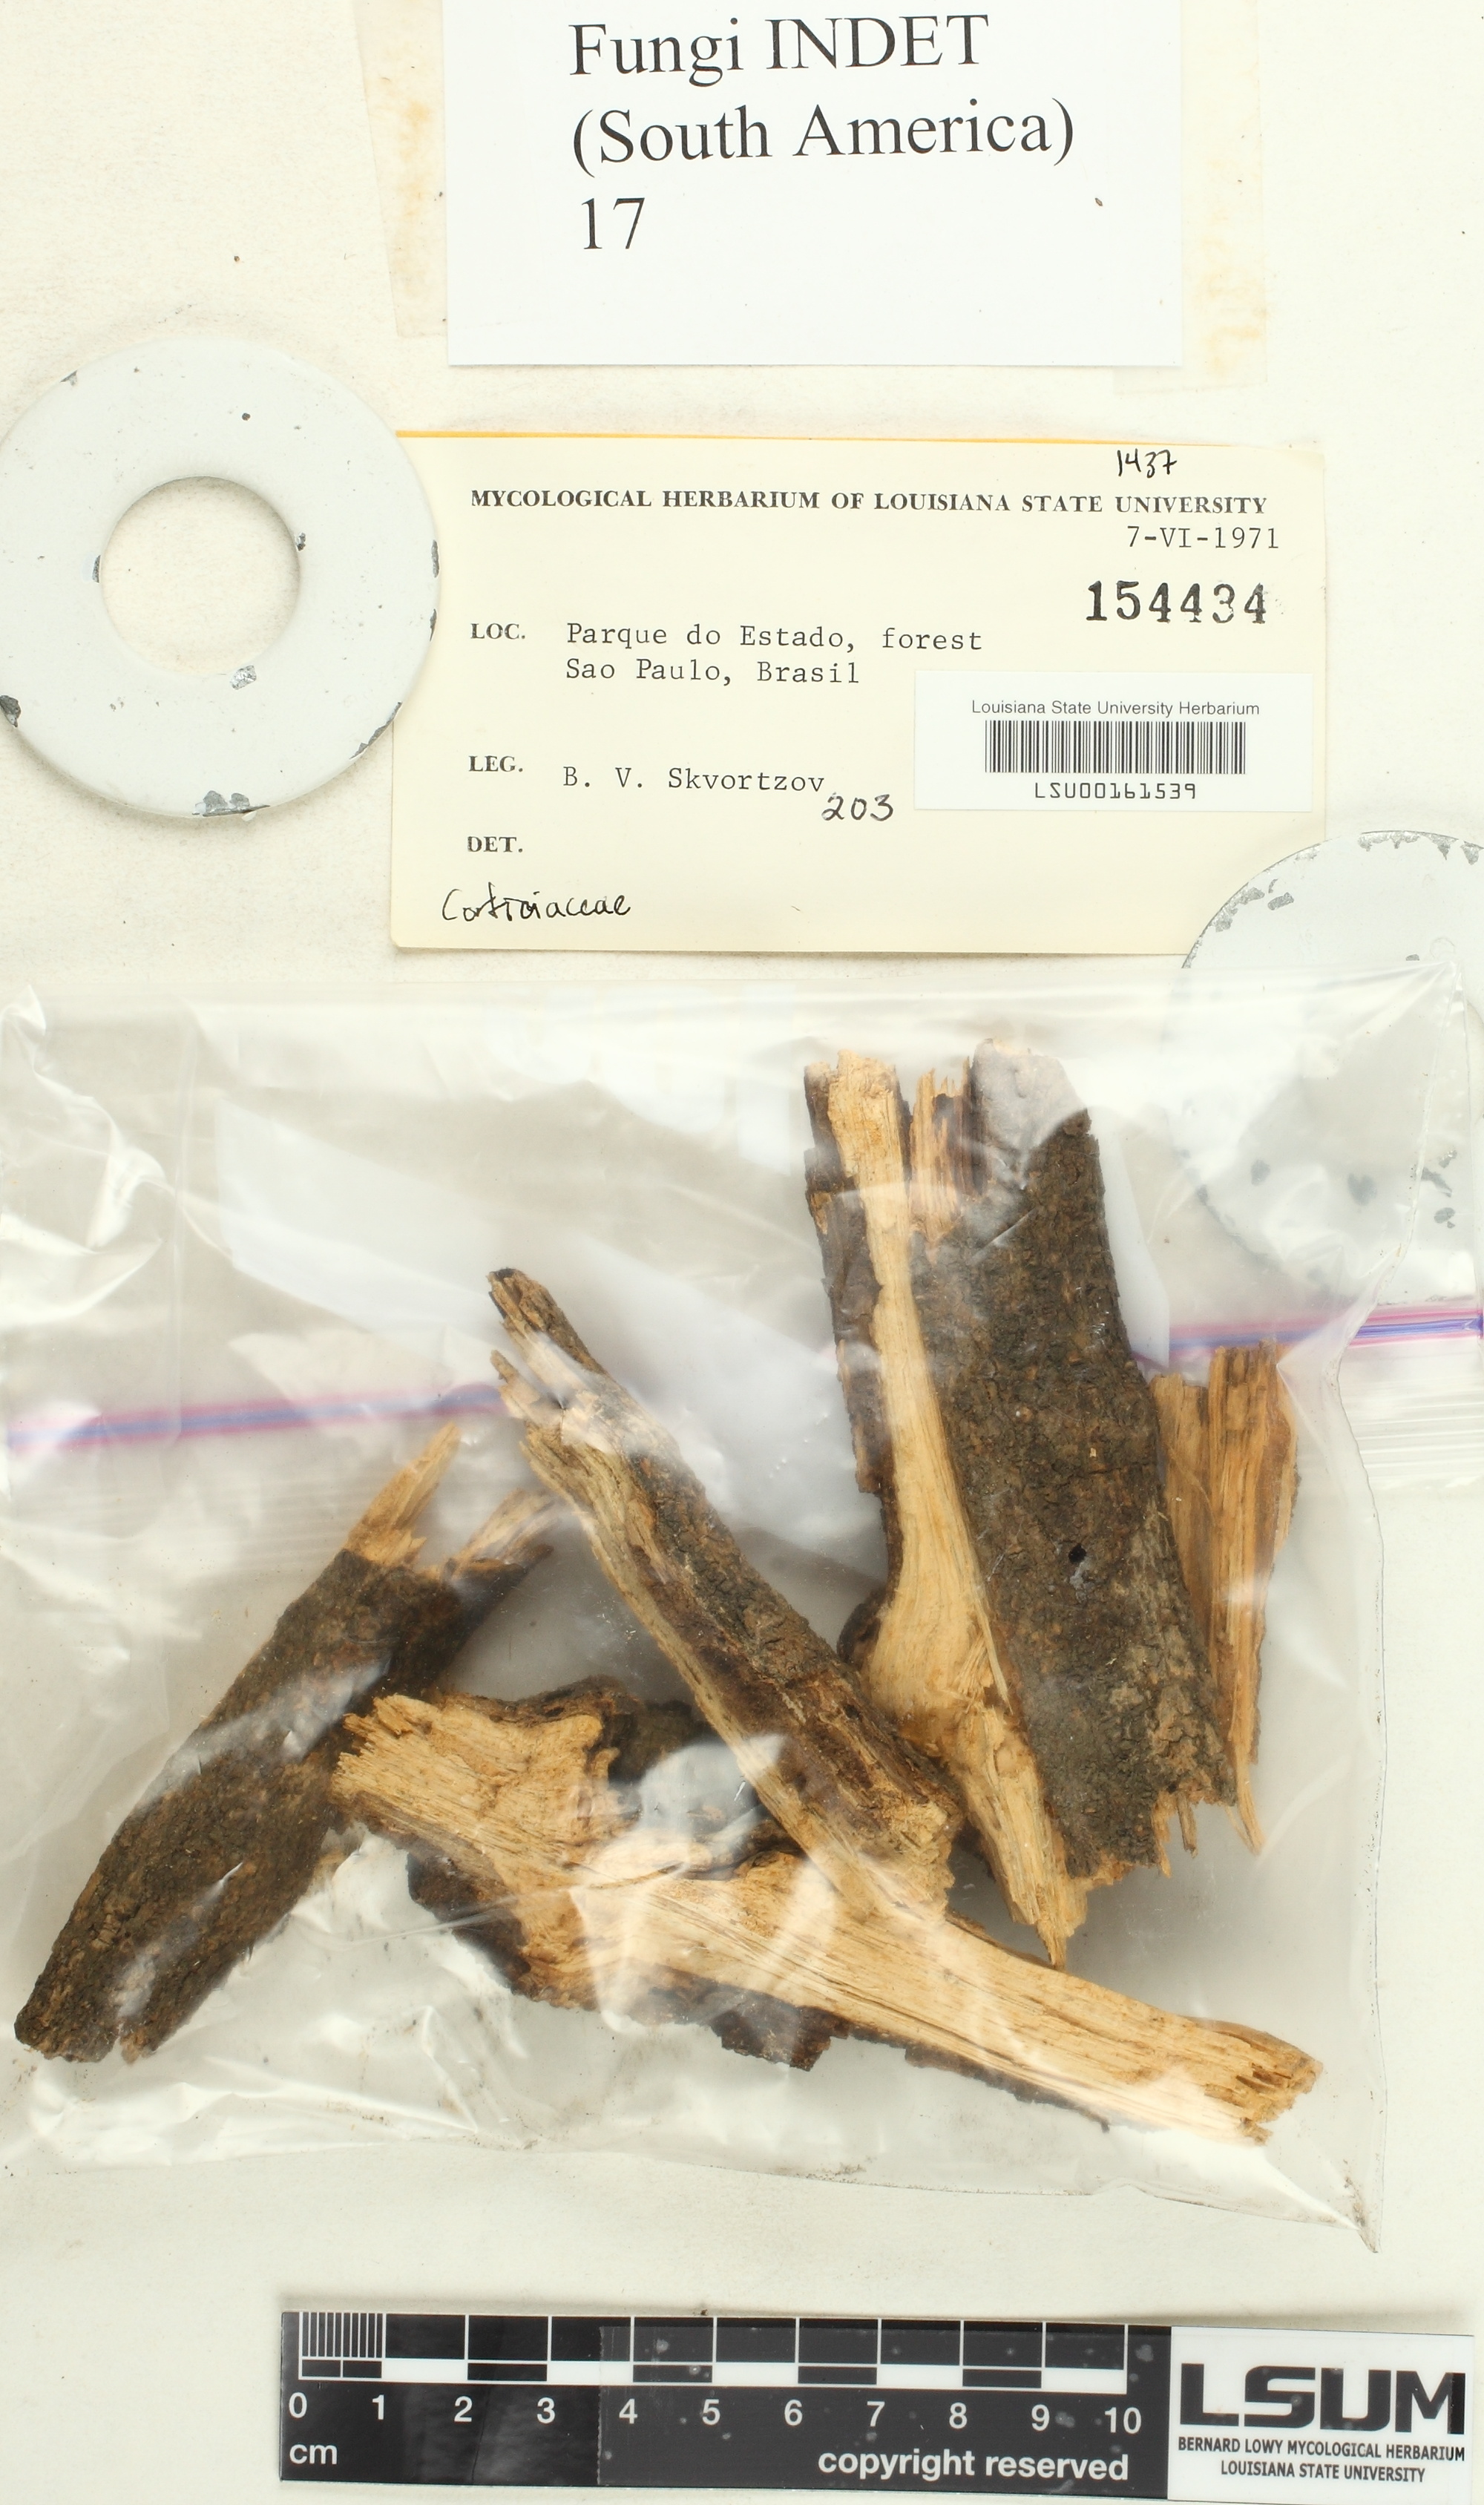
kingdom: Fungi
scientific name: Fungi
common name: Fungi
